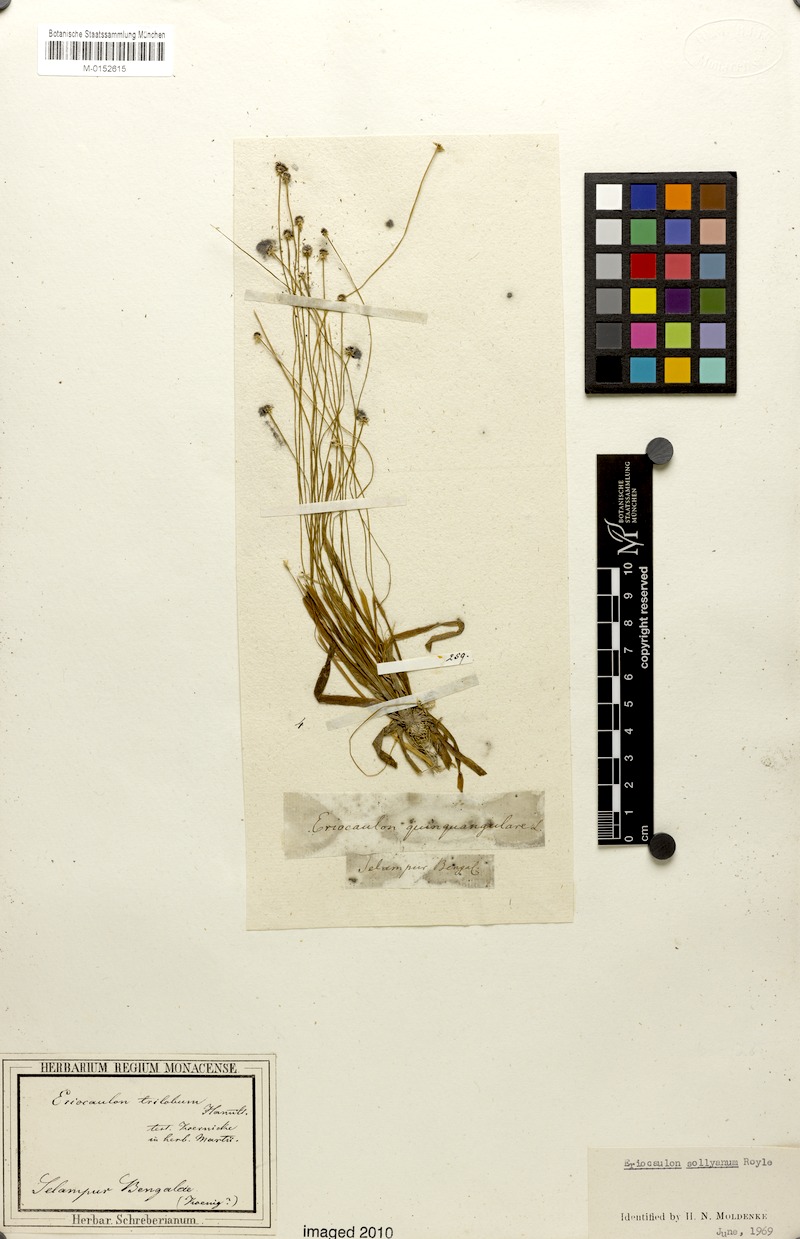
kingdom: Plantae
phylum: Tracheophyta
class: Liliopsida
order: Poales
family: Eriocaulaceae
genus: Eriocaulon
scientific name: Eriocaulon sollyanum
